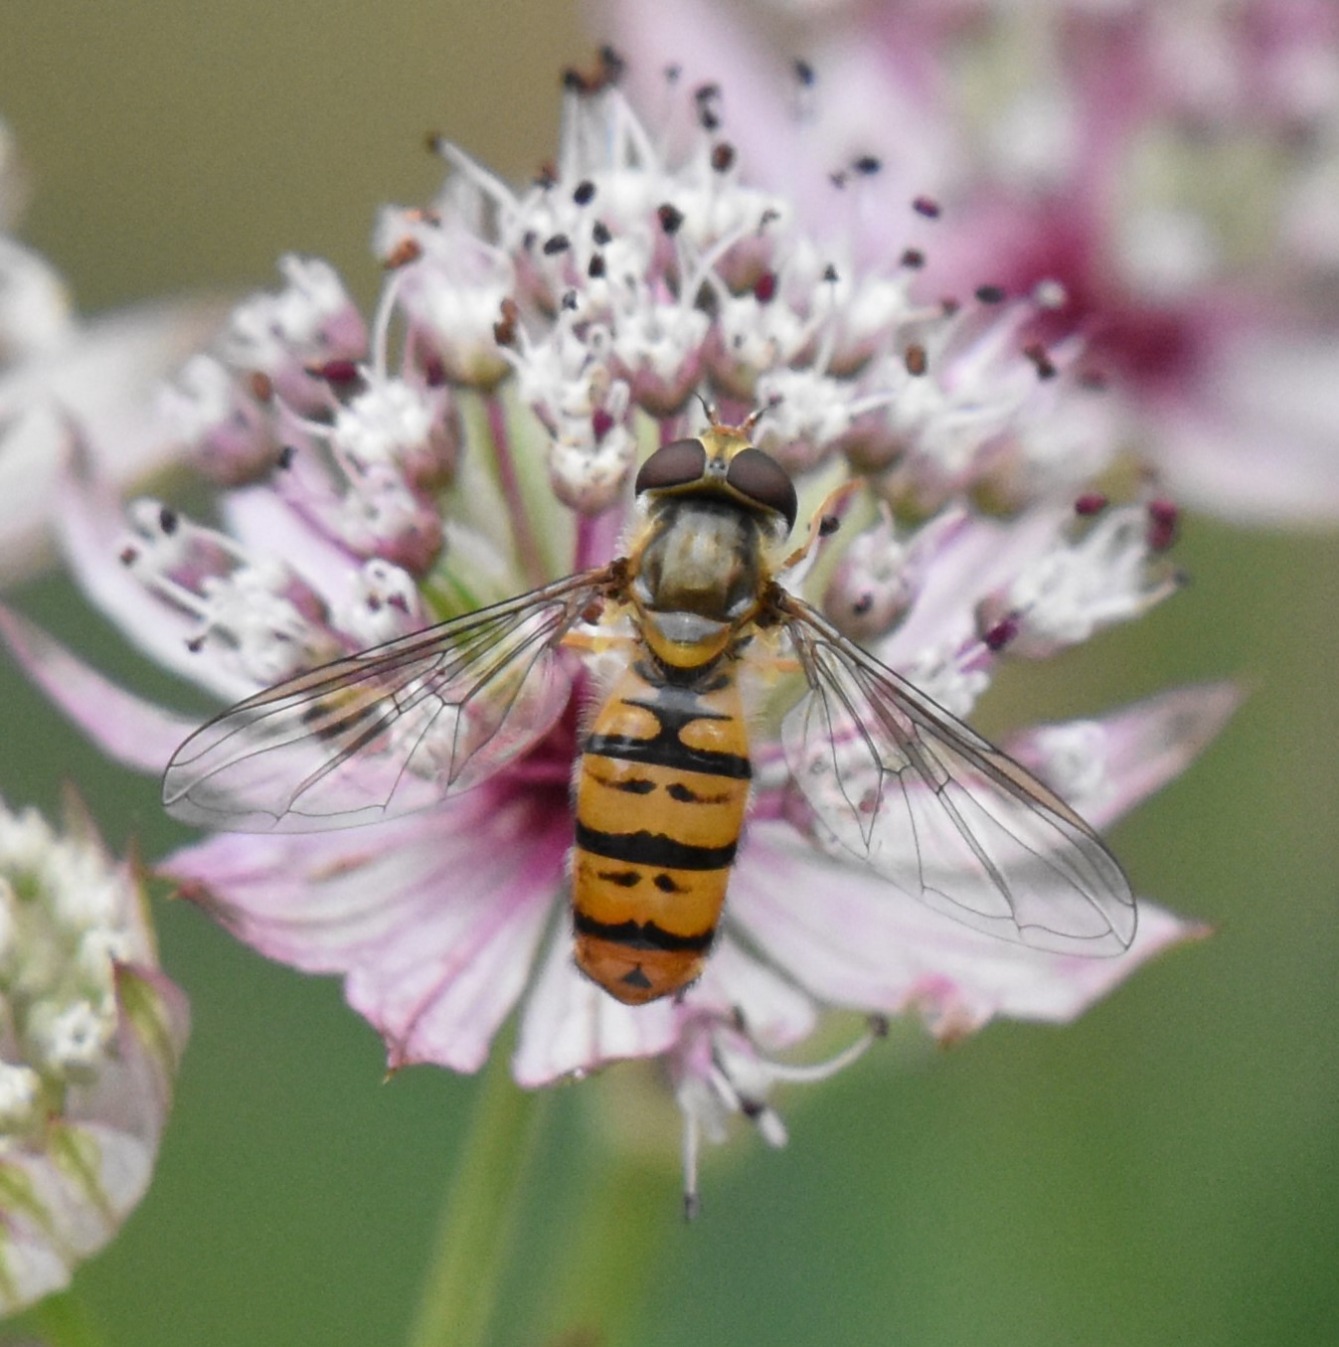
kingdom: Animalia
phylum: Arthropoda
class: Insecta
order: Diptera
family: Syrphidae
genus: Episyrphus
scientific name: Episyrphus balteatus
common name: Dobbeltbåndet svirreflue
